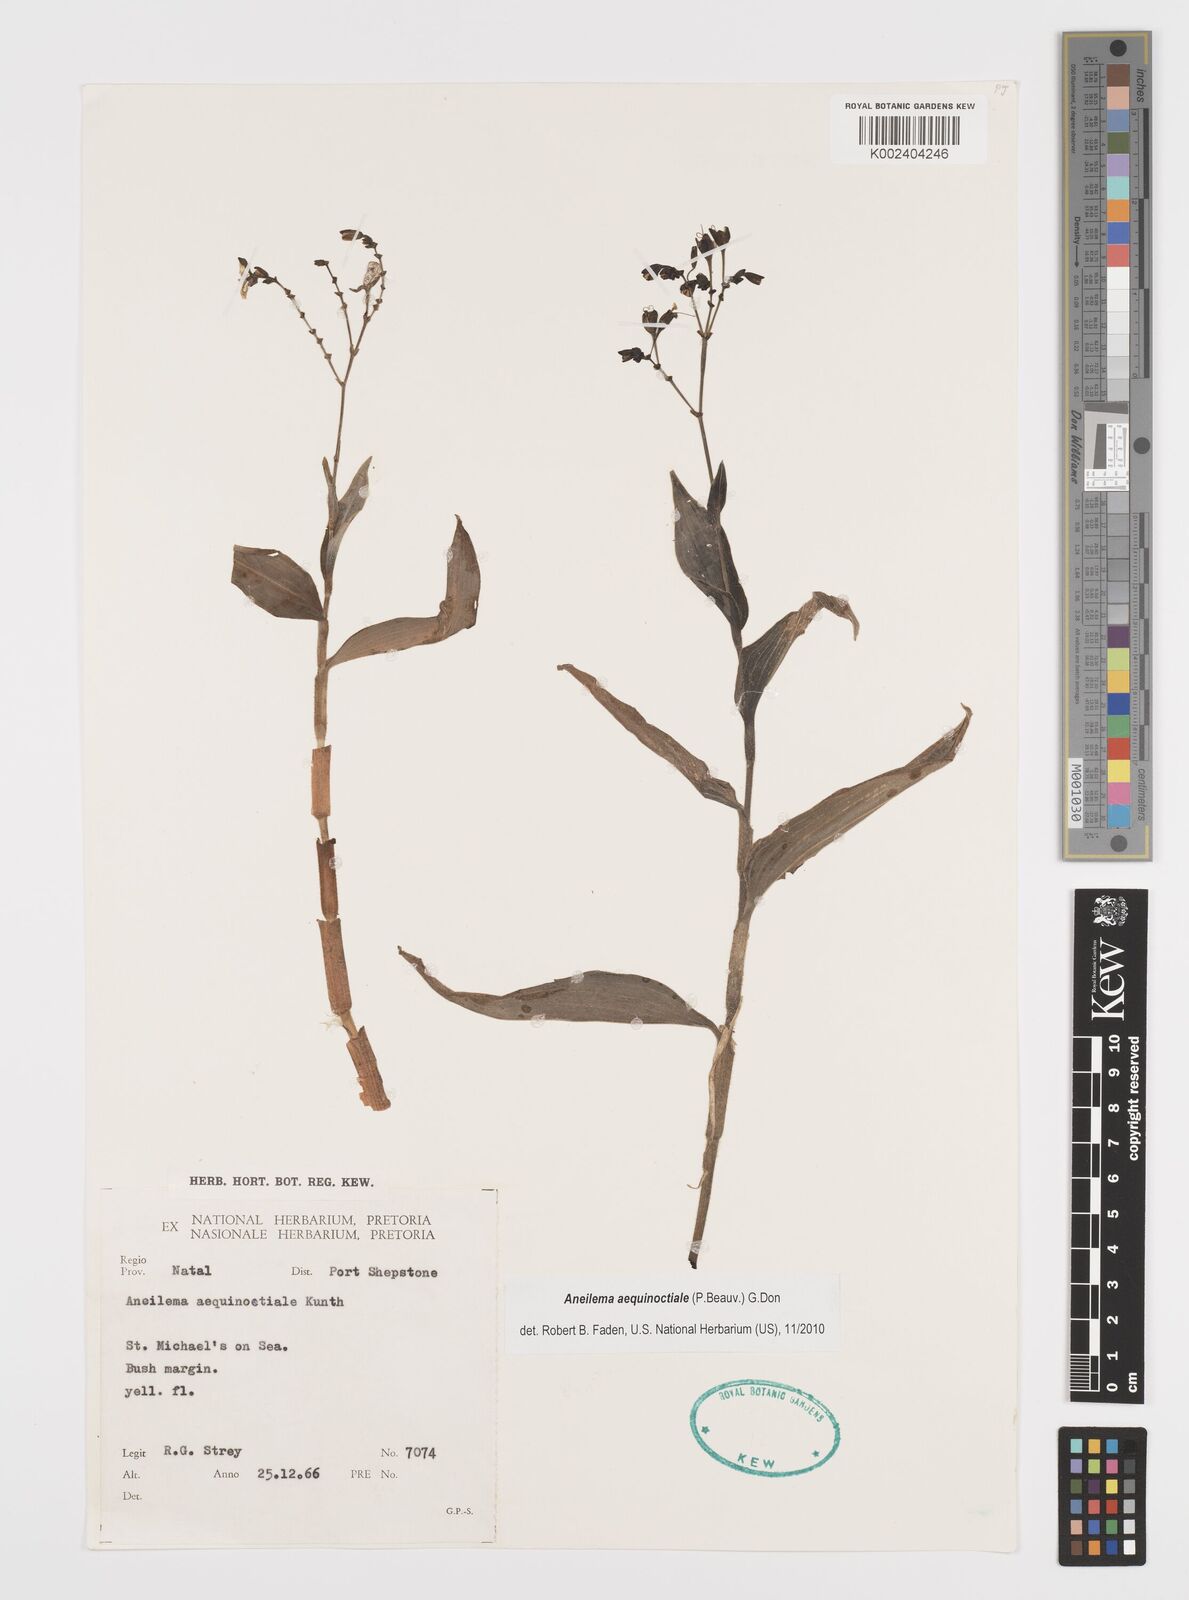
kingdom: Plantae
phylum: Tracheophyta
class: Liliopsida
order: Commelinales
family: Commelinaceae
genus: Aneilema
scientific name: Aneilema aequinoctiale
